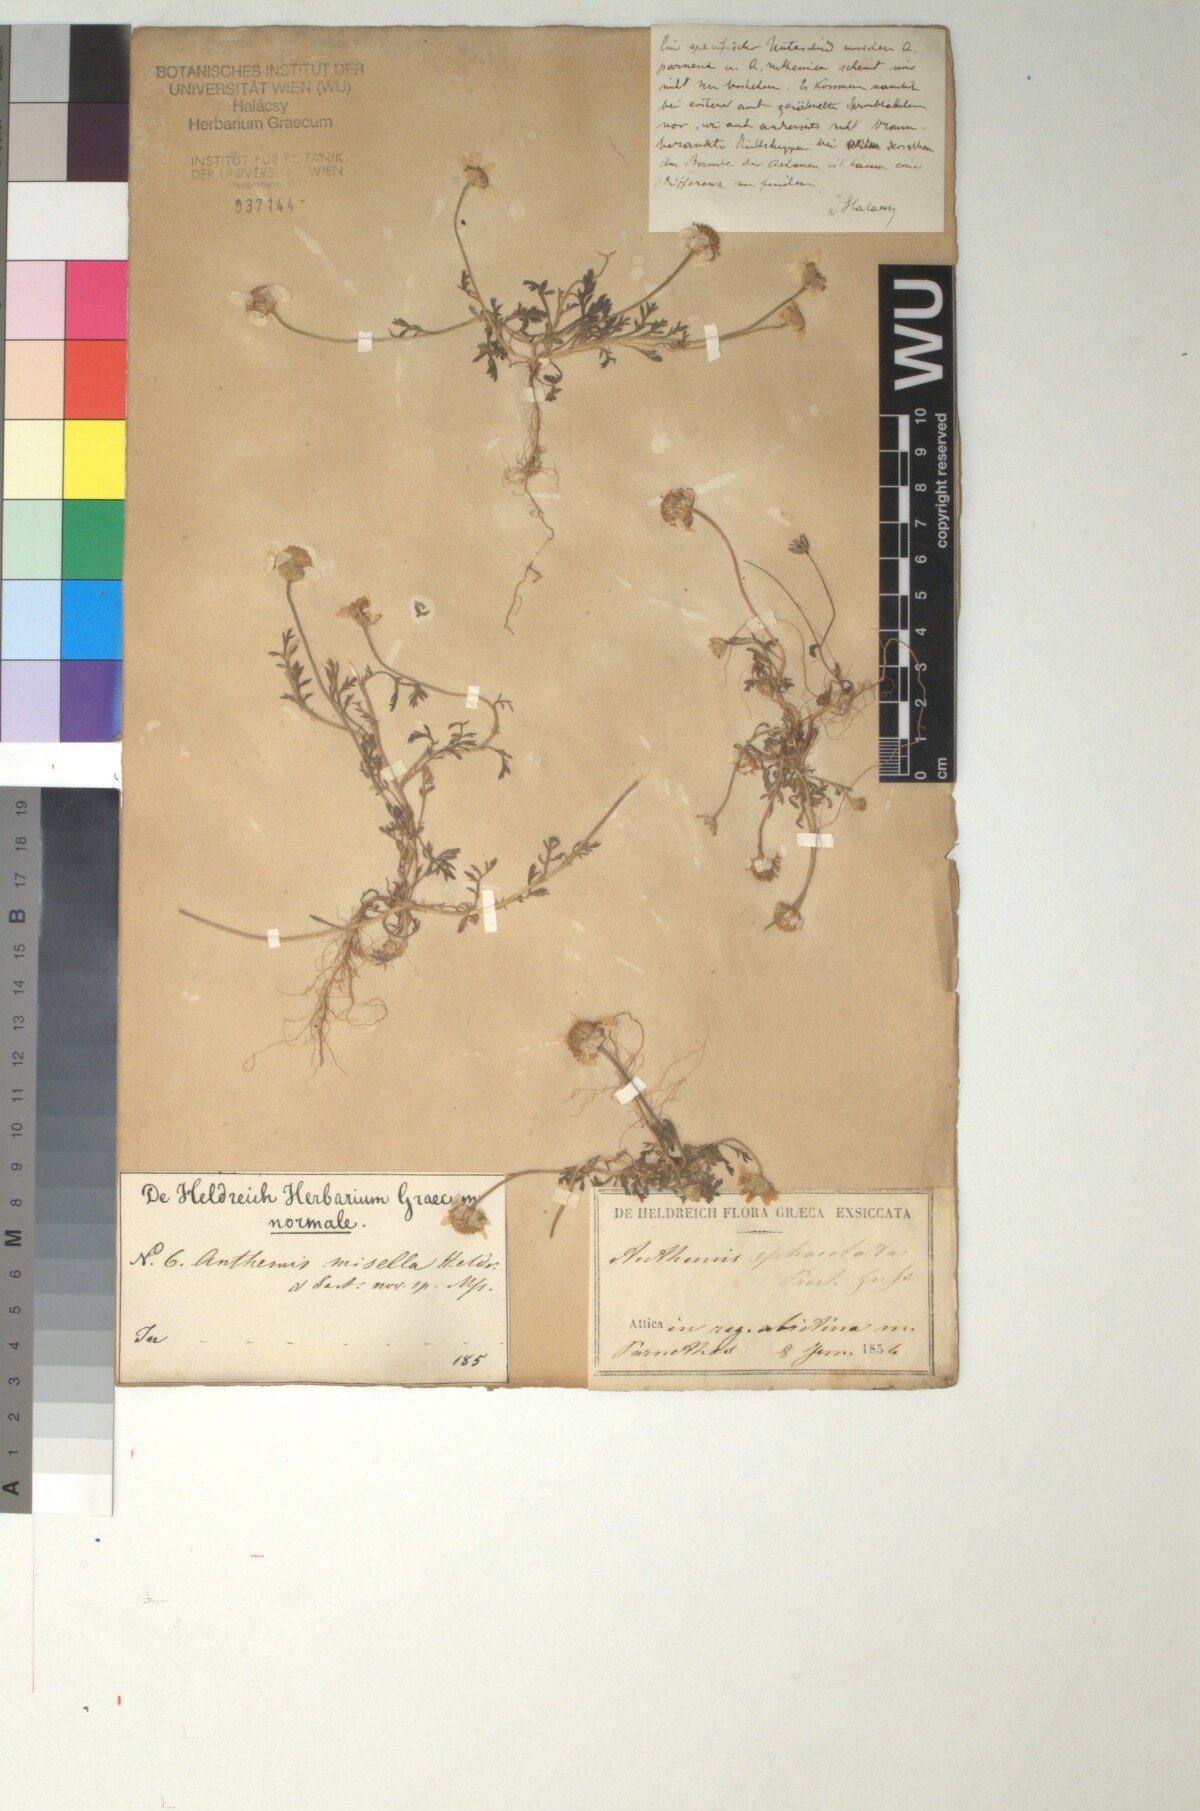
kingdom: Plantae
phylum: Tracheophyta
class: Magnoliopsida
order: Asterales
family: Asteraceae
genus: Cota
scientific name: Cota tinctoria
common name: Golden chamomile
